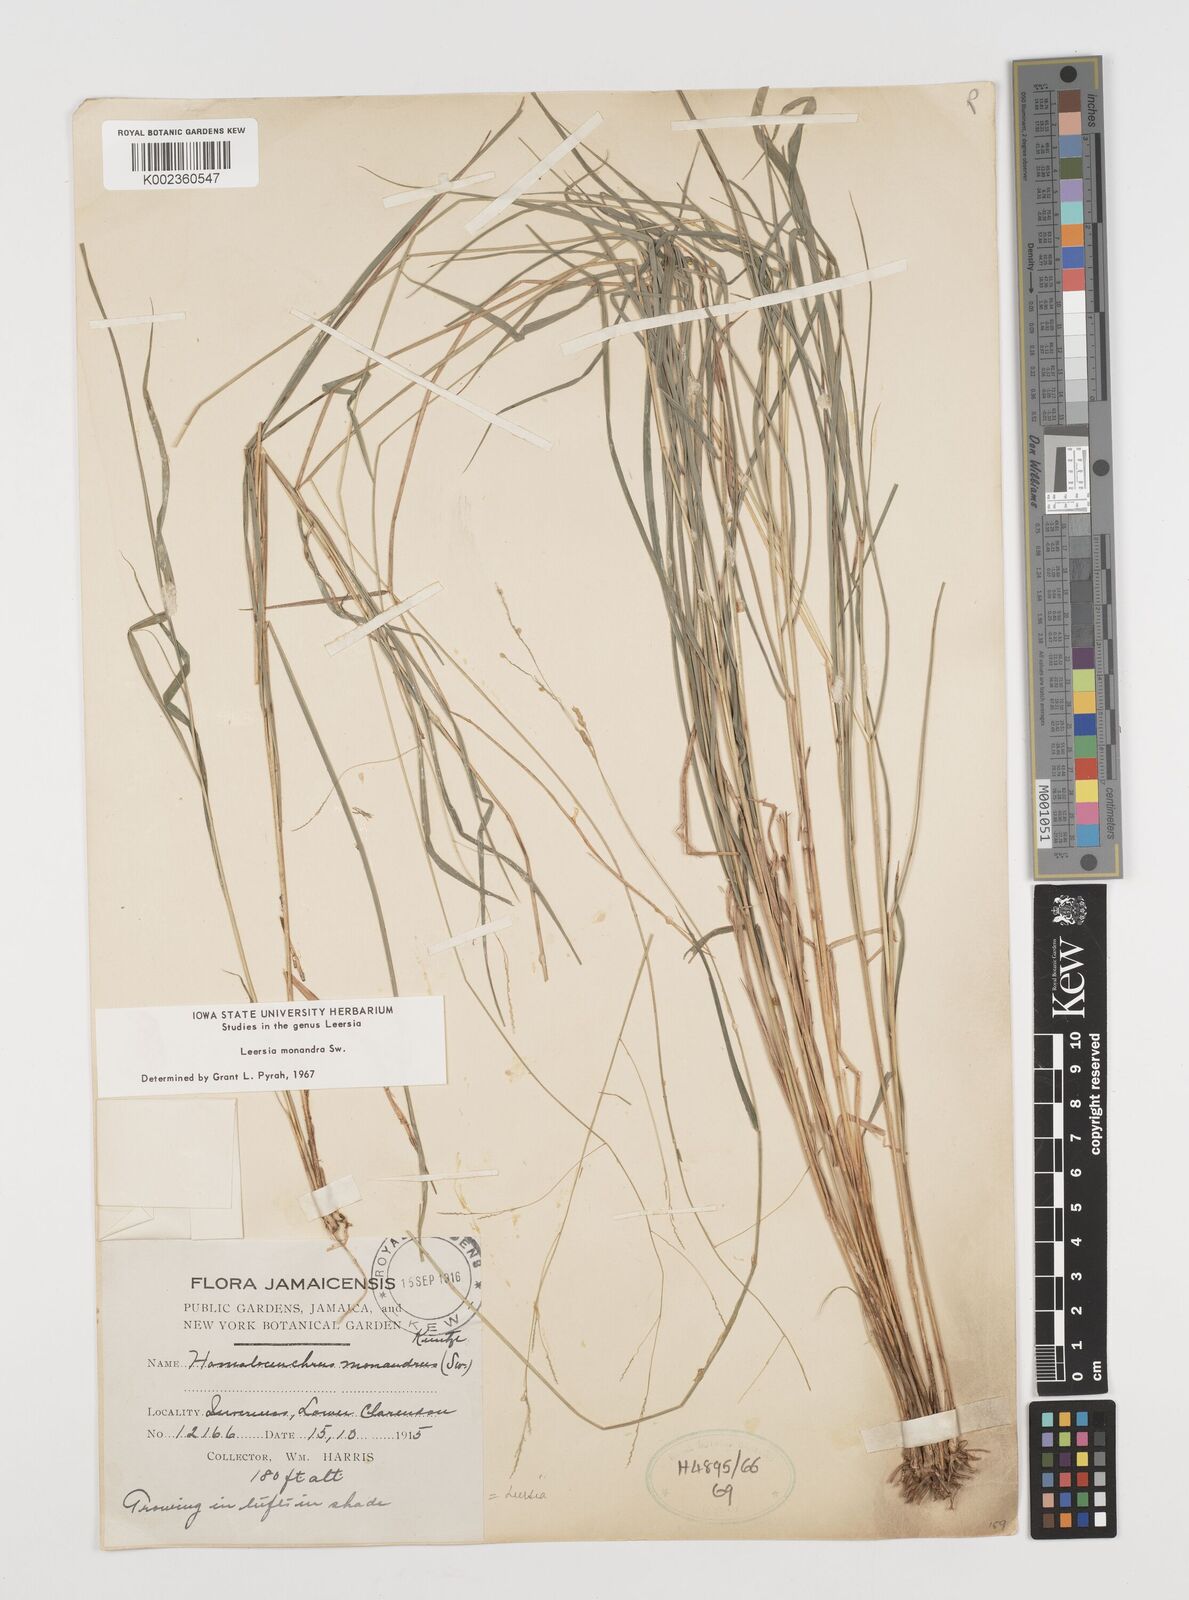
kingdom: Plantae
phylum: Tracheophyta
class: Liliopsida
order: Poales
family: Poaceae
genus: Leersia
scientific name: Leersia monandra
